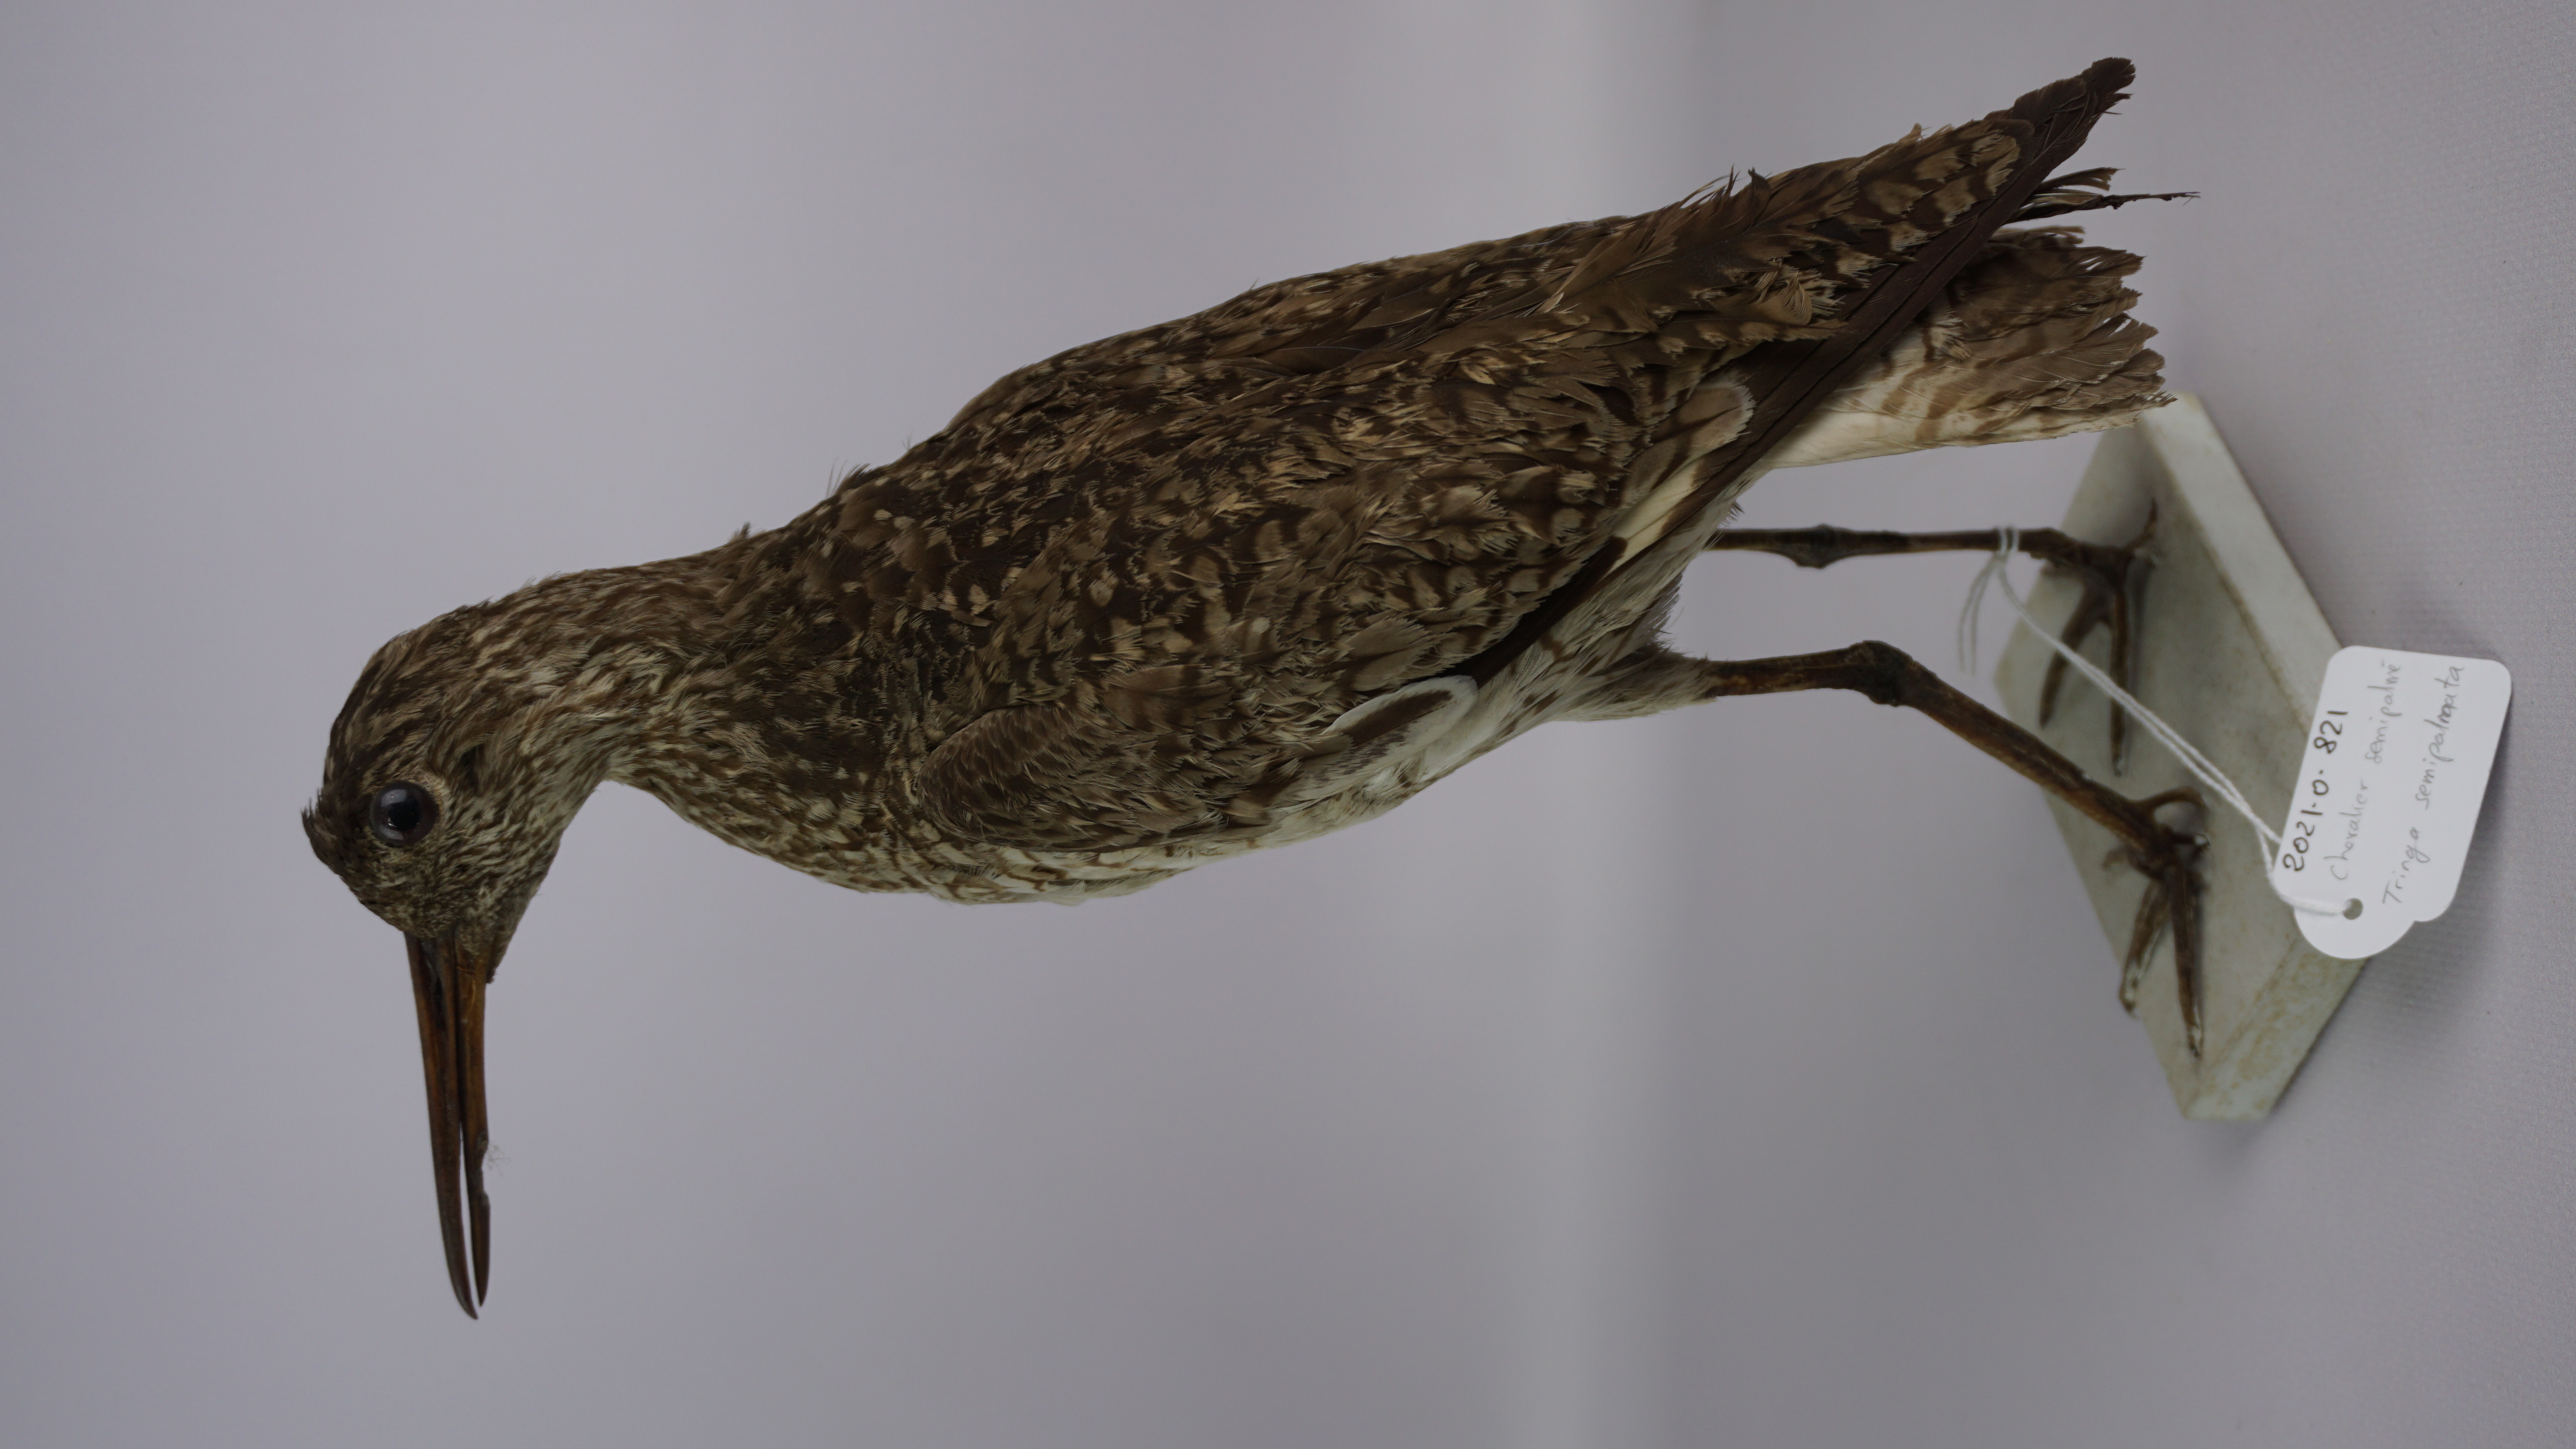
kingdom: Animalia
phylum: Chordata
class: Aves
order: Charadriiformes
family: Scolopacidae
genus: Tringa
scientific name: Tringa semipalmata
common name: Willet
